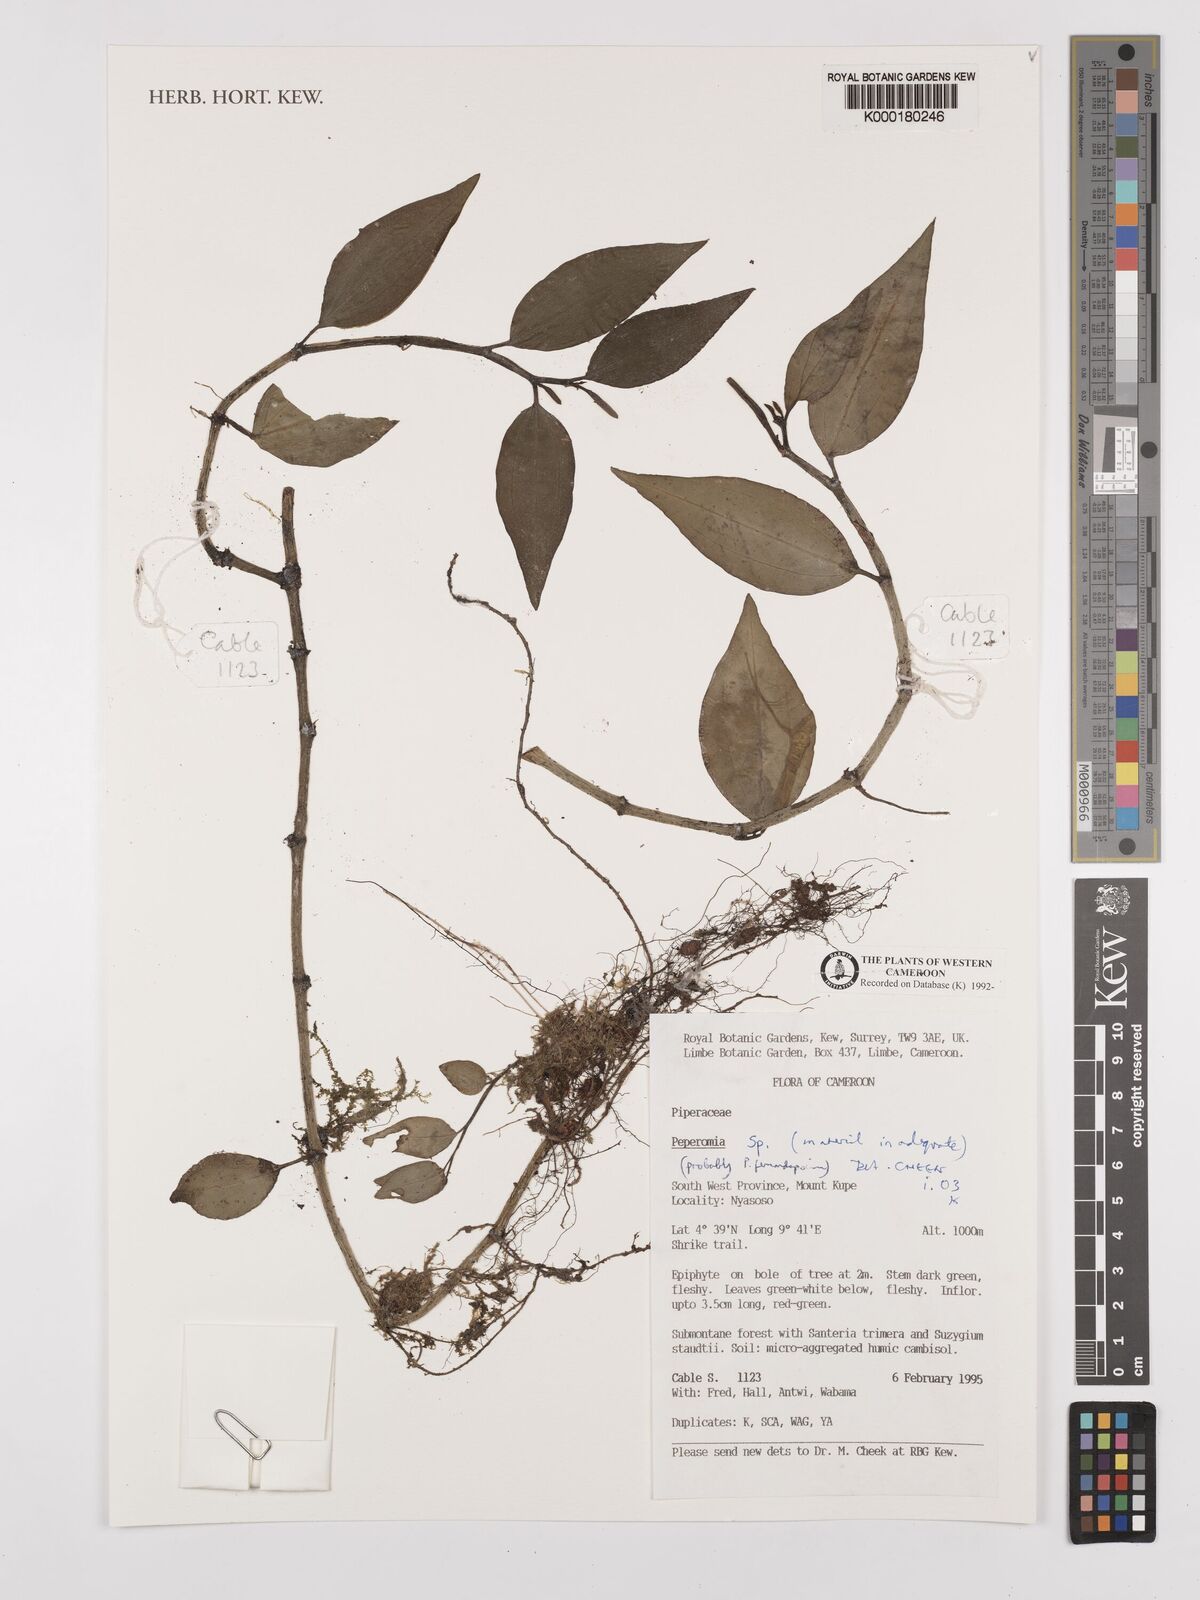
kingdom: Plantae
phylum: Tracheophyta
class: Magnoliopsida
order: Piperales
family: Piperaceae
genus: Peperomia
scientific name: Peperomia
